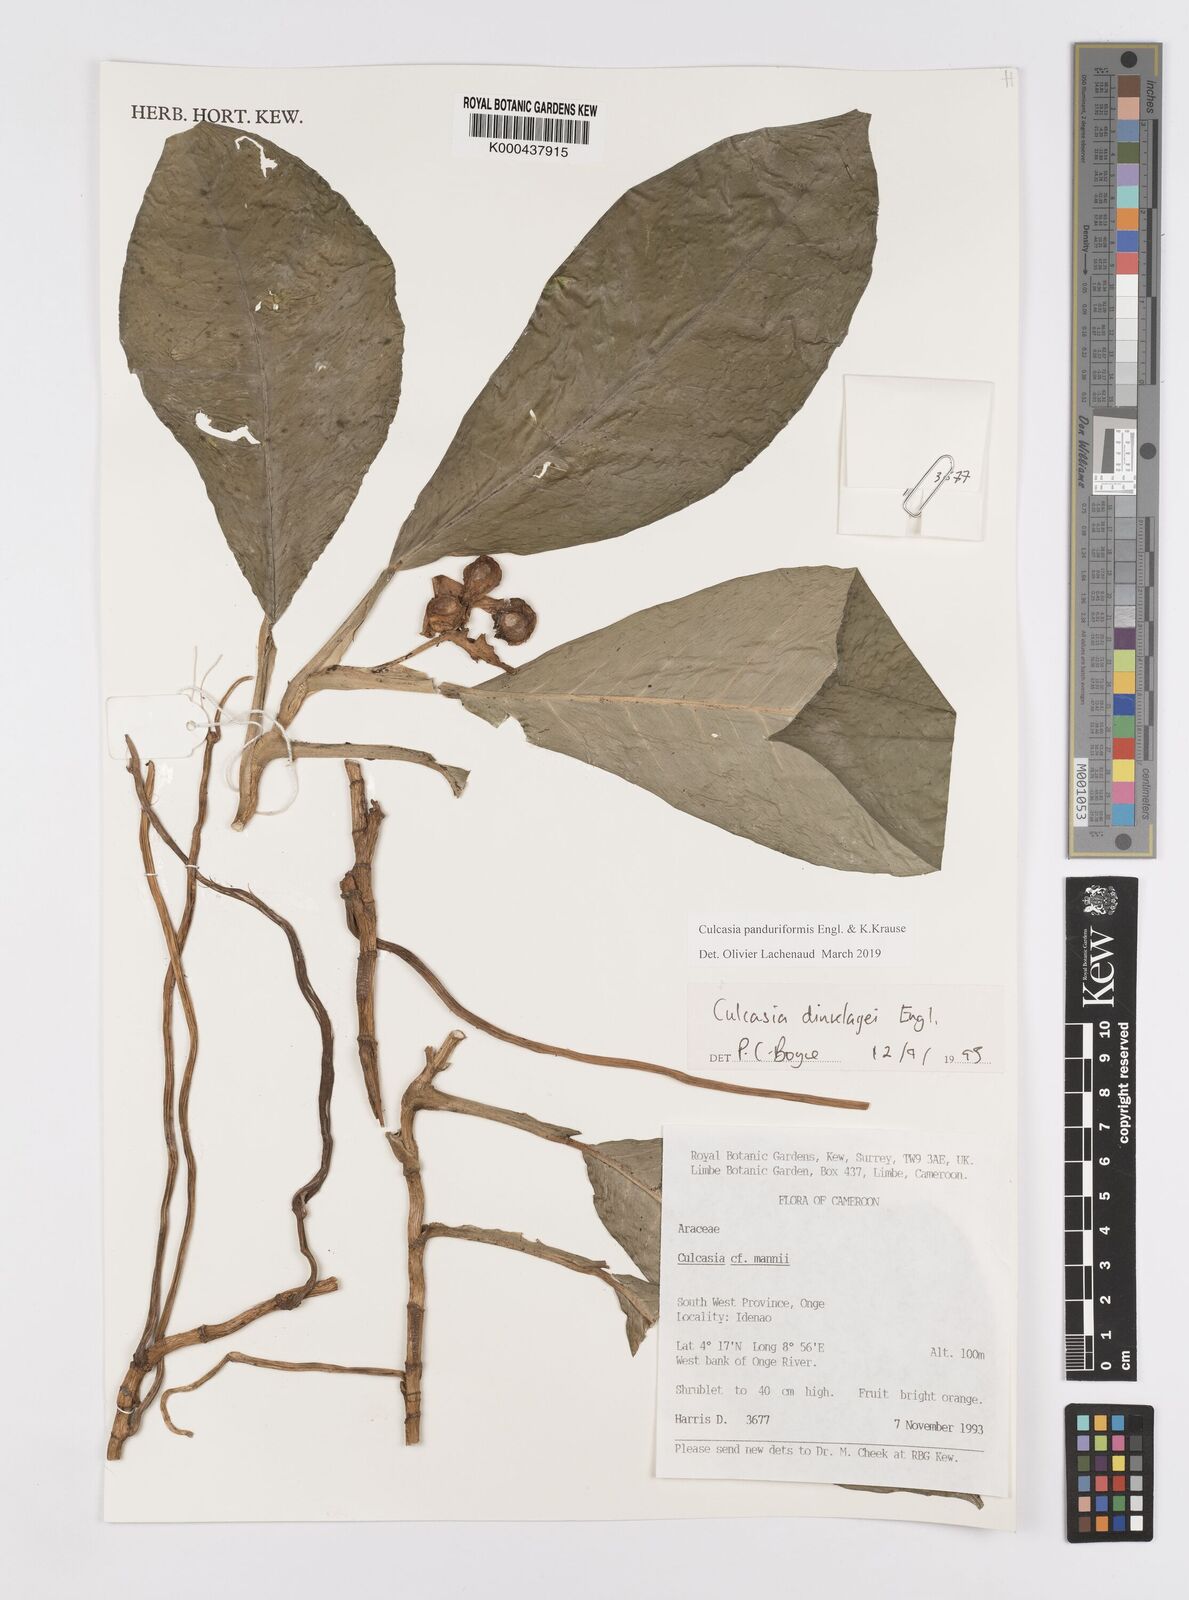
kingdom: Plantae
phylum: Tracheophyta
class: Liliopsida
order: Alismatales
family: Araceae
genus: Culcasia
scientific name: Culcasia panduriformis
